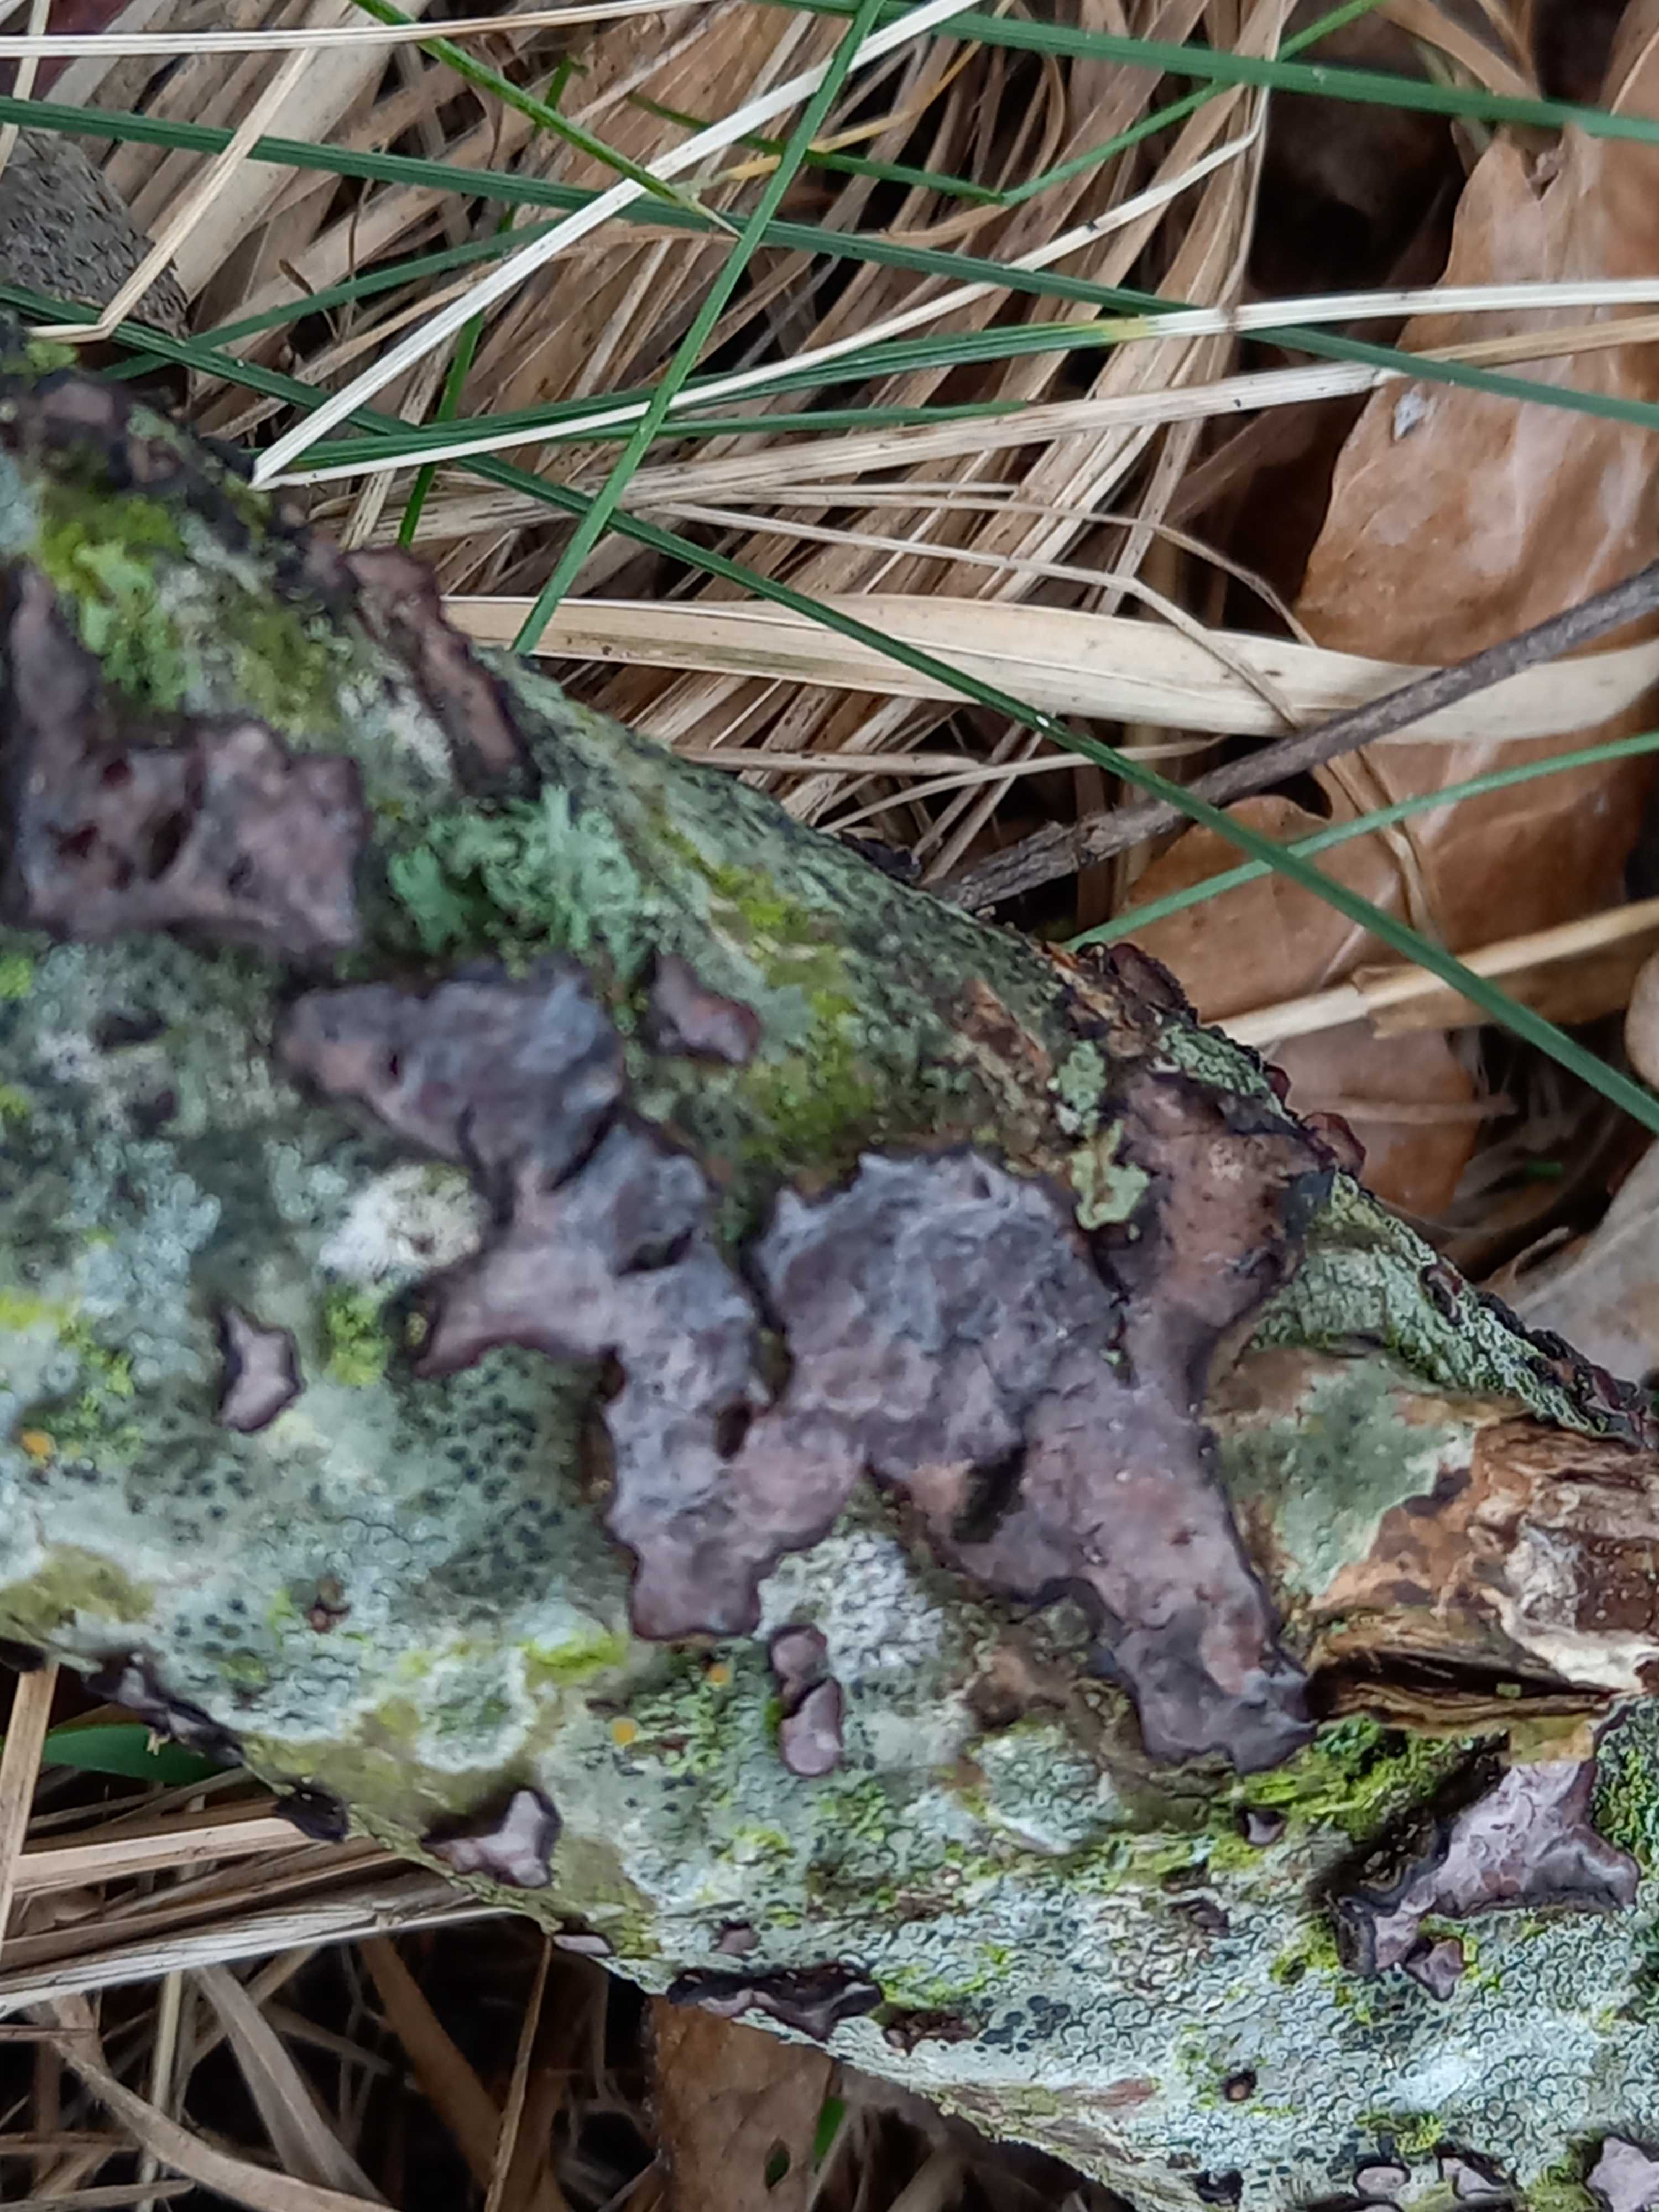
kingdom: Fungi
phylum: Basidiomycota
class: Agaricomycetes
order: Russulales
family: Peniophoraceae
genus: Peniophora
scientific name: Peniophora quercina
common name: ege-voksskind
